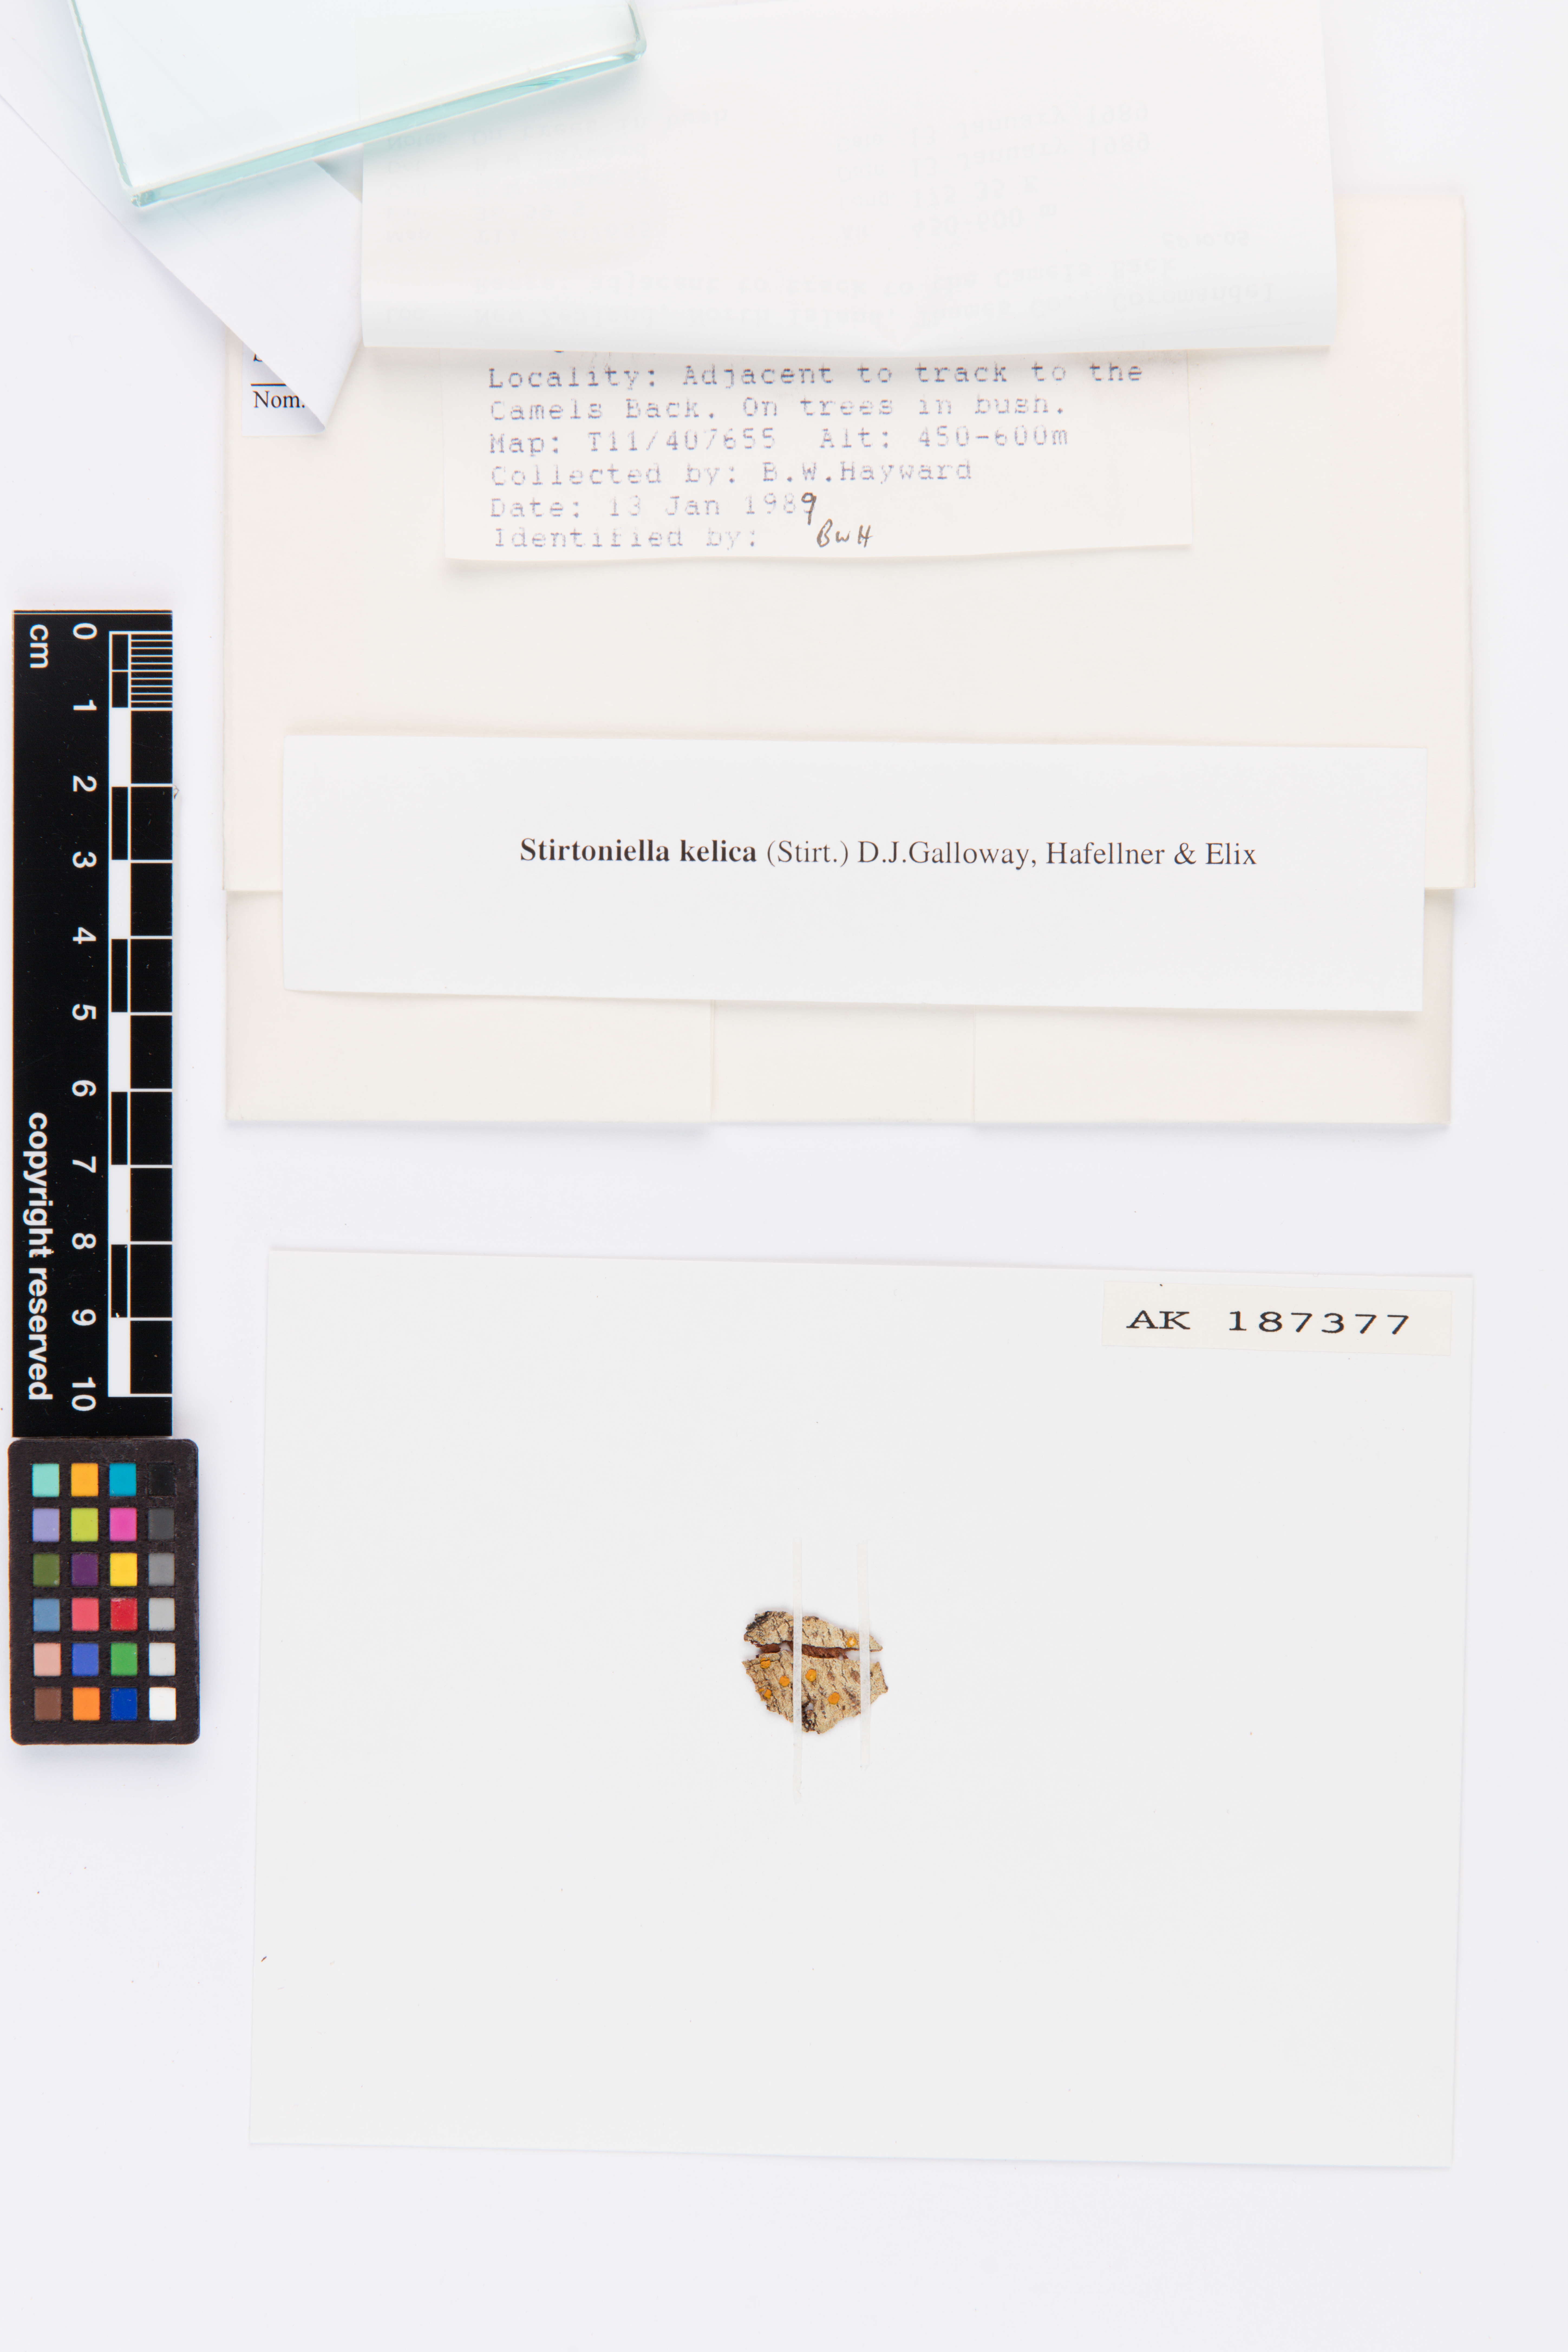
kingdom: Fungi
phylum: Ascomycota
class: Lecanoromycetes
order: Lecanorales
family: Ramalinaceae
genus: Stirtoniella
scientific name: Stirtoniella kelica
